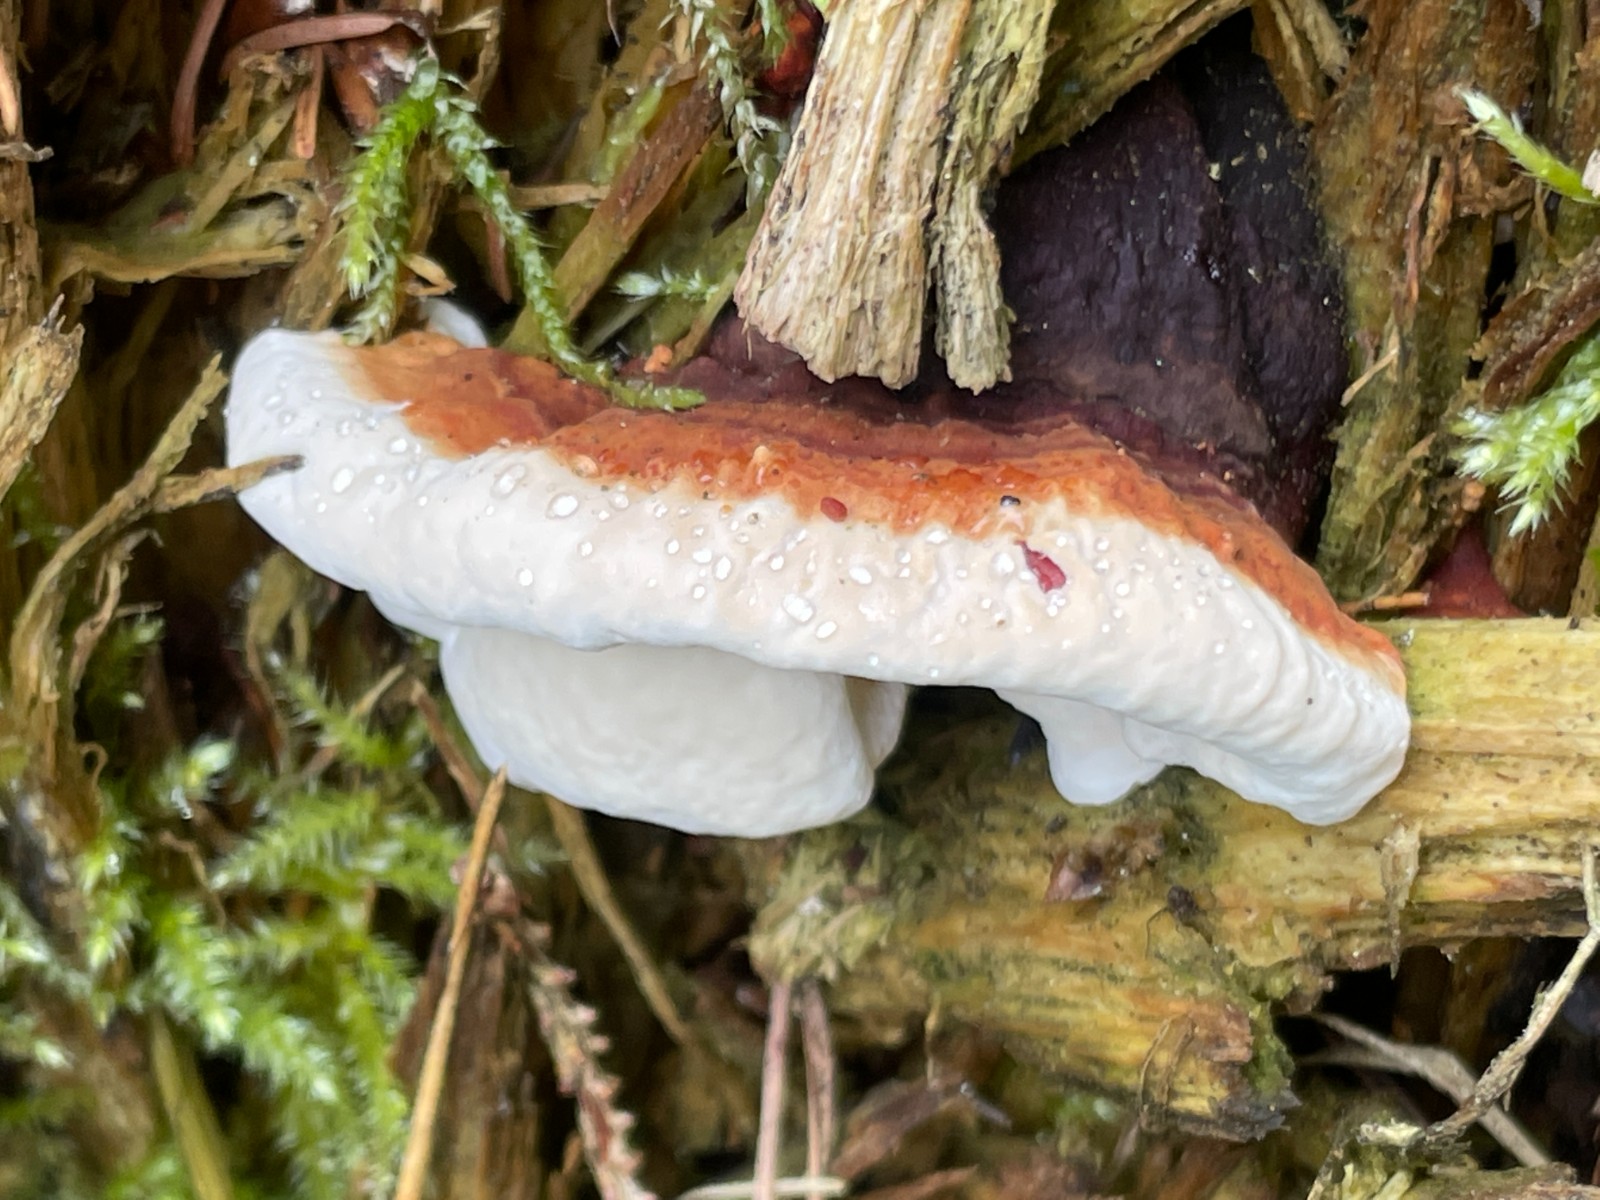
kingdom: Fungi
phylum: Basidiomycota
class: Agaricomycetes
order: Russulales
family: Bondarzewiaceae
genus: Heterobasidion
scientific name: Heterobasidion annosum
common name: almindelig rodfordærver
